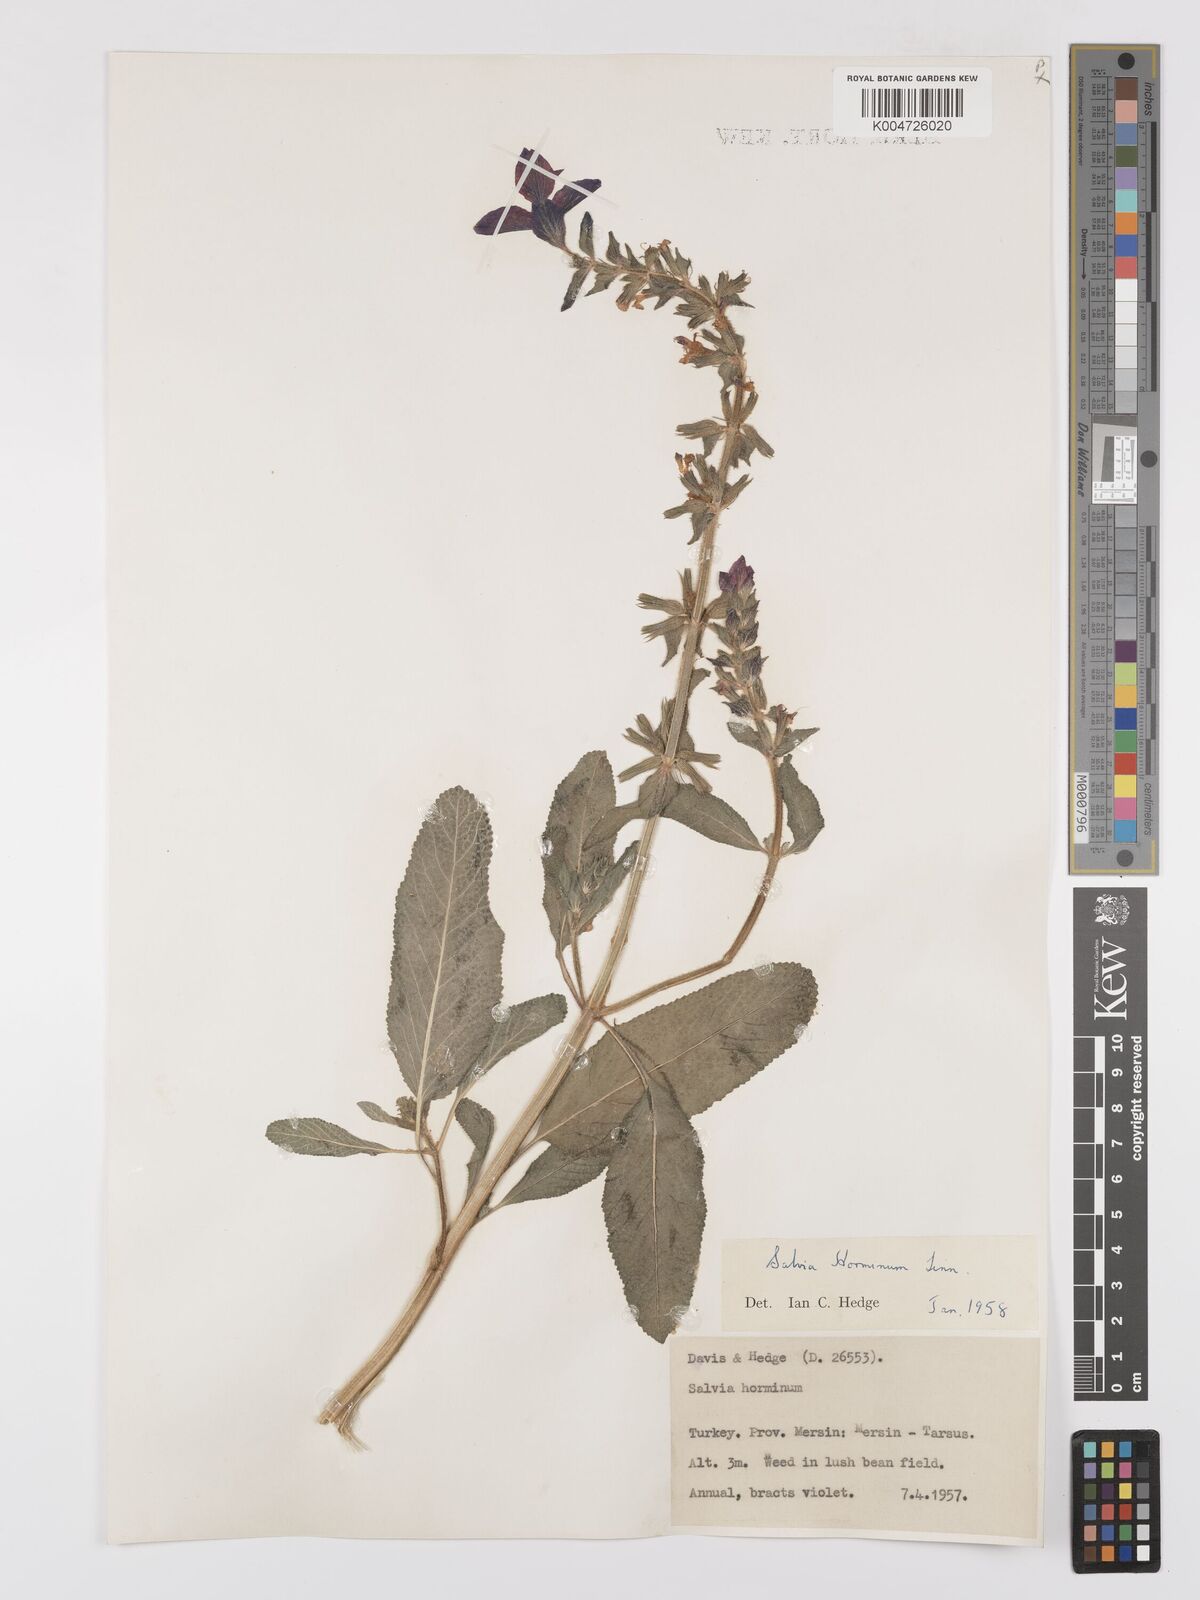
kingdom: Plantae
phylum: Tracheophyta
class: Magnoliopsida
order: Lamiales
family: Lamiaceae
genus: Salvia
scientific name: Salvia viridis
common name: Annual clary
